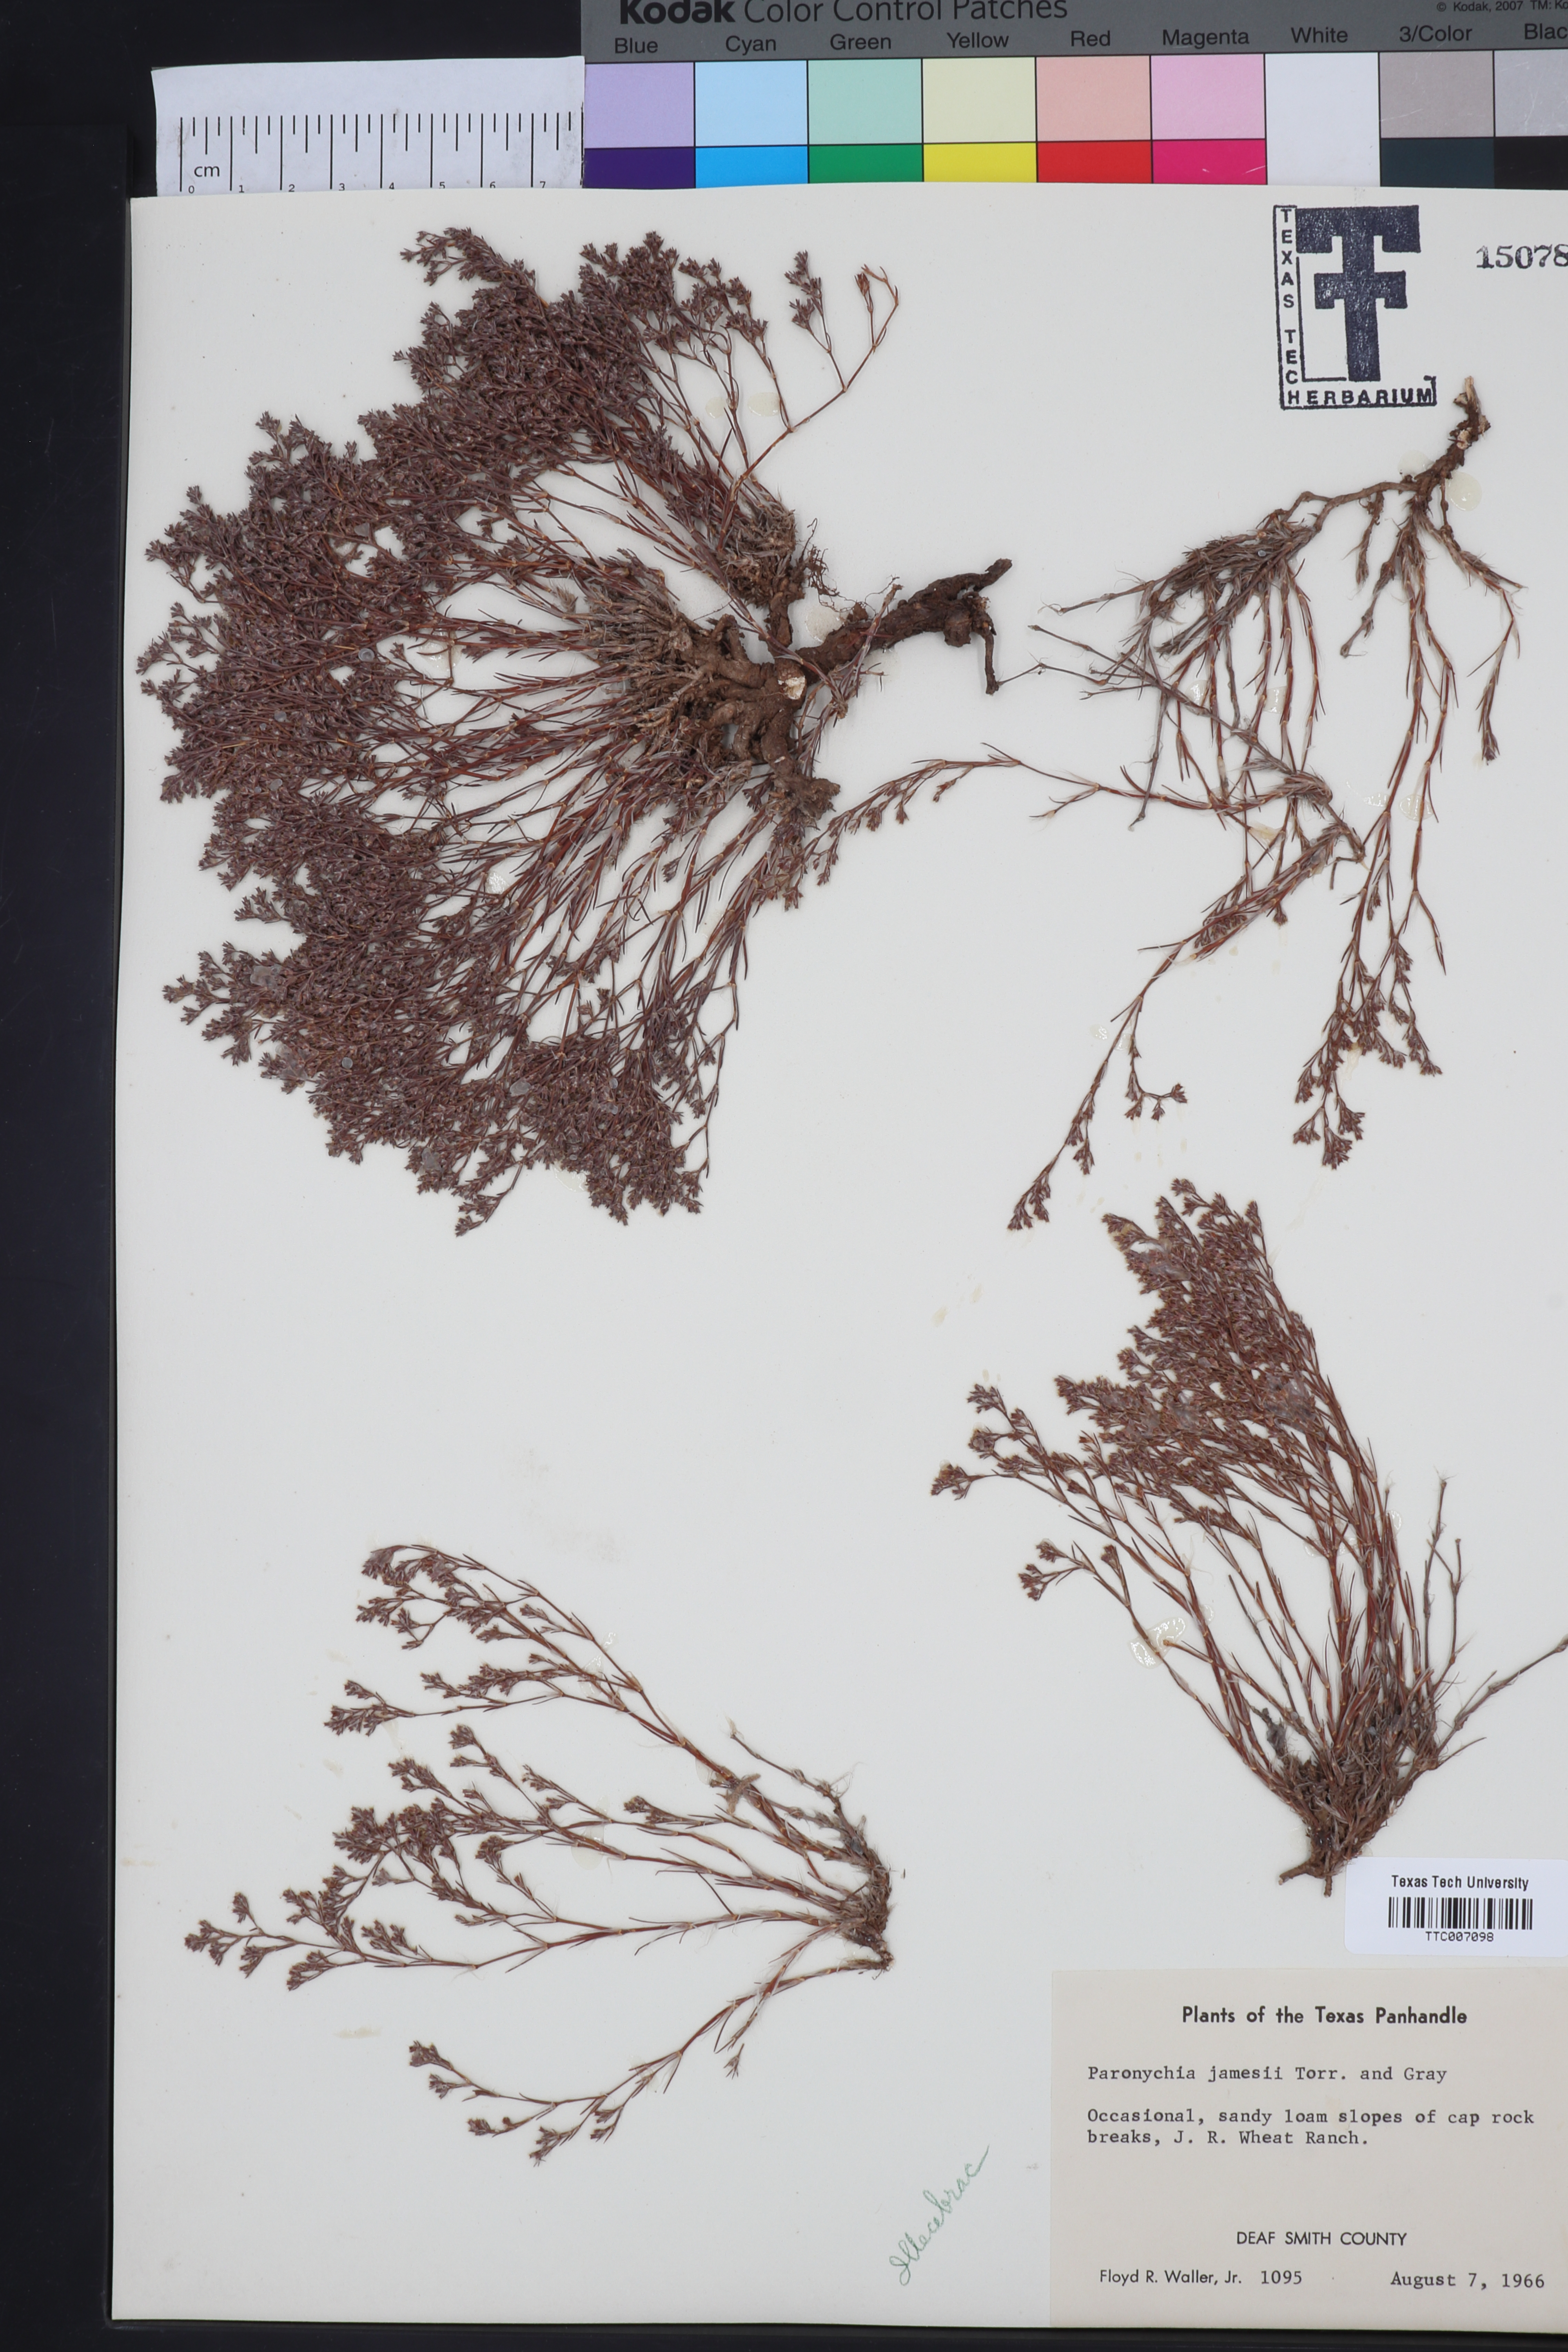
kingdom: Plantae
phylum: Tracheophyta
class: Magnoliopsida
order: Caryophyllales
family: Caryophyllaceae
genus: Paronychia
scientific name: Paronychia jamesii
